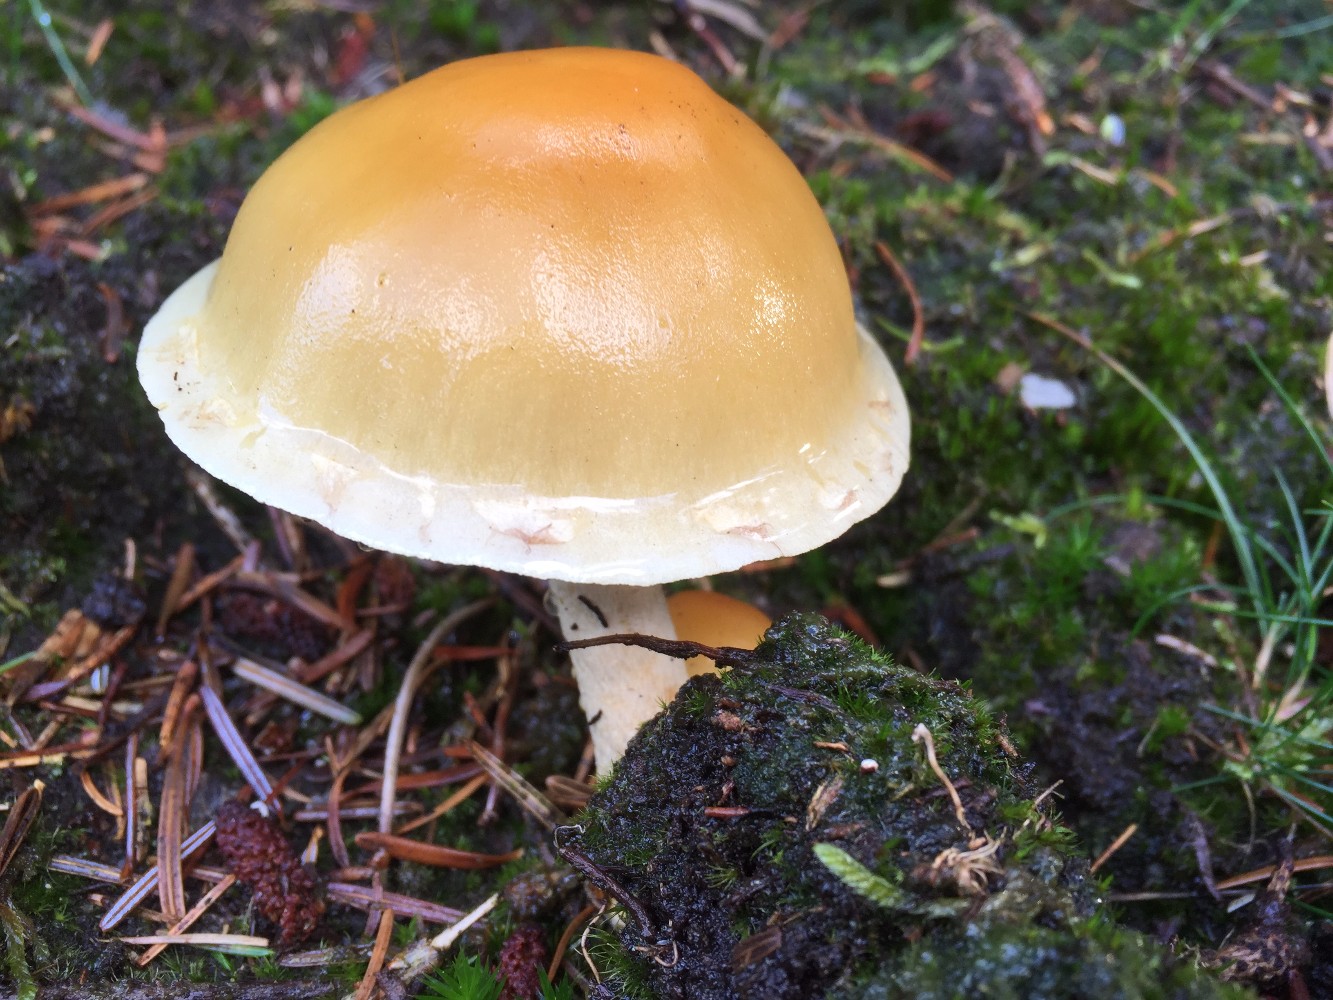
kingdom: Fungi
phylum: Basidiomycota
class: Agaricomycetes
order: Agaricales
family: Strophariaceae
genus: Hypholoma
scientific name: Hypholoma capnoides
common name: gran-svovlhat
